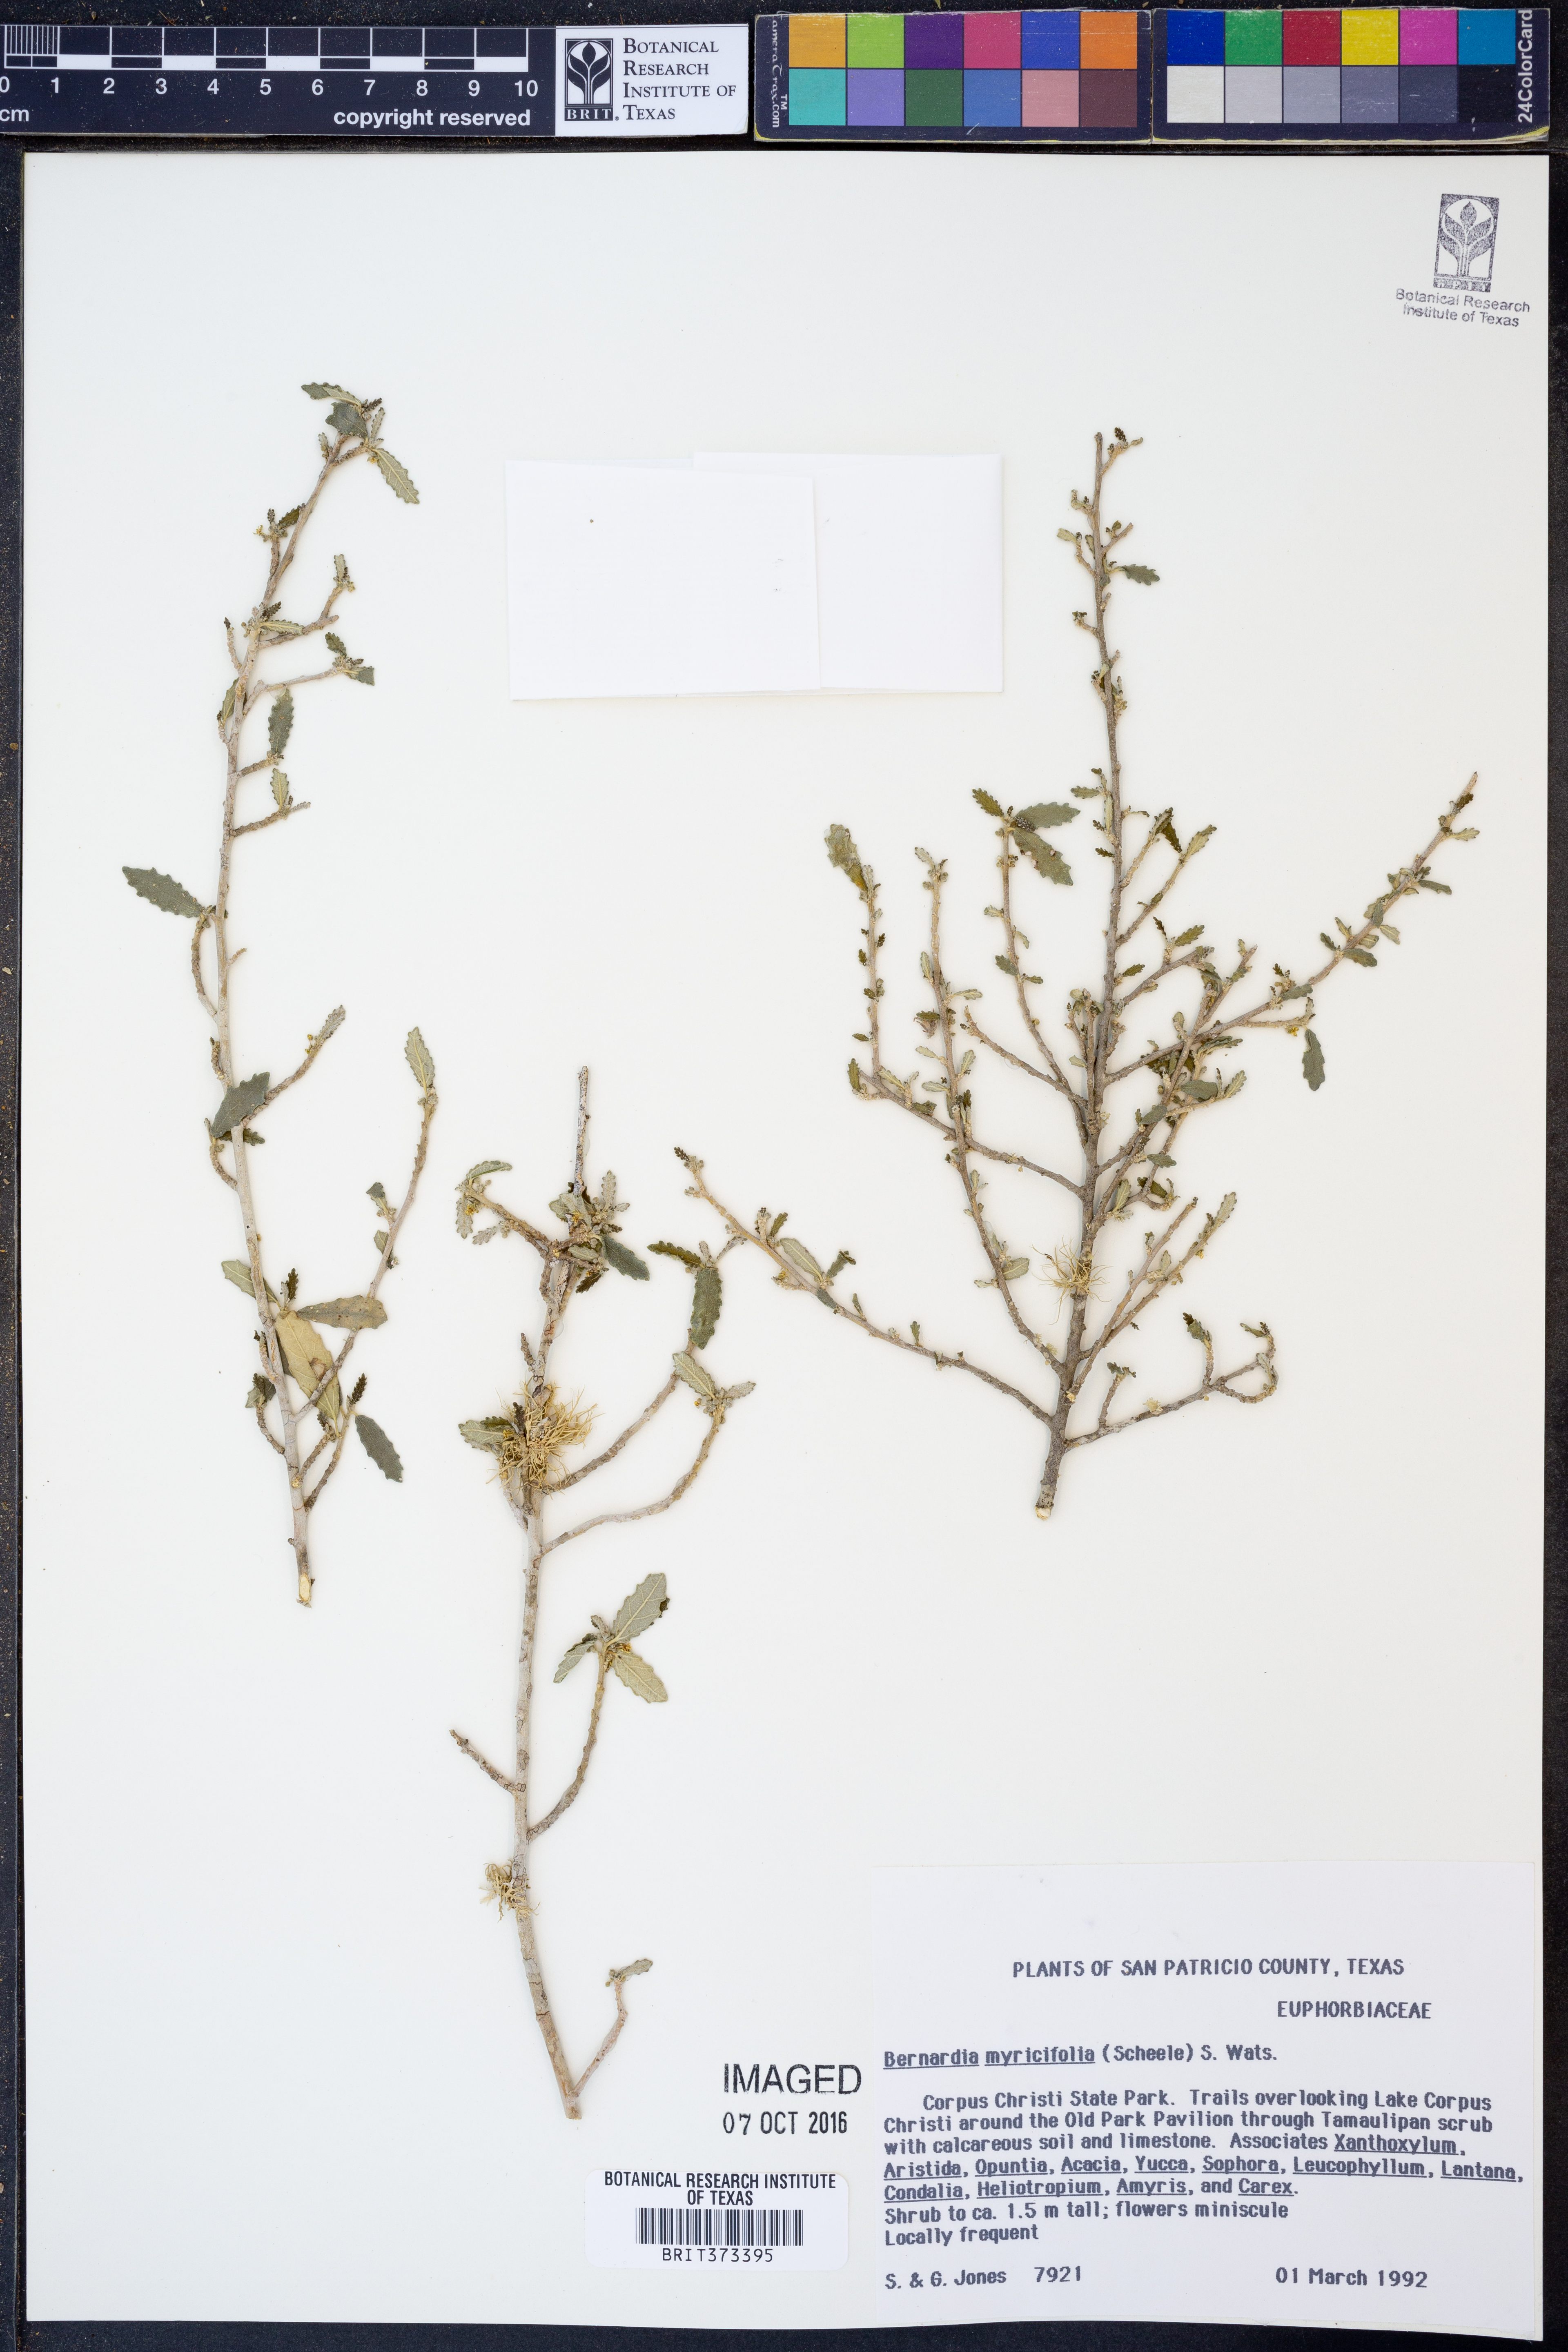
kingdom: Plantae
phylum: Tracheophyta
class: Magnoliopsida
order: Malpighiales
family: Euphorbiaceae
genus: Bernardia
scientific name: Bernardia myricifolia
